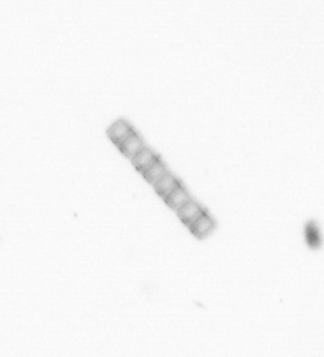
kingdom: Chromista
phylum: Ochrophyta
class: Bacillariophyceae
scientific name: Bacillariophyceae
